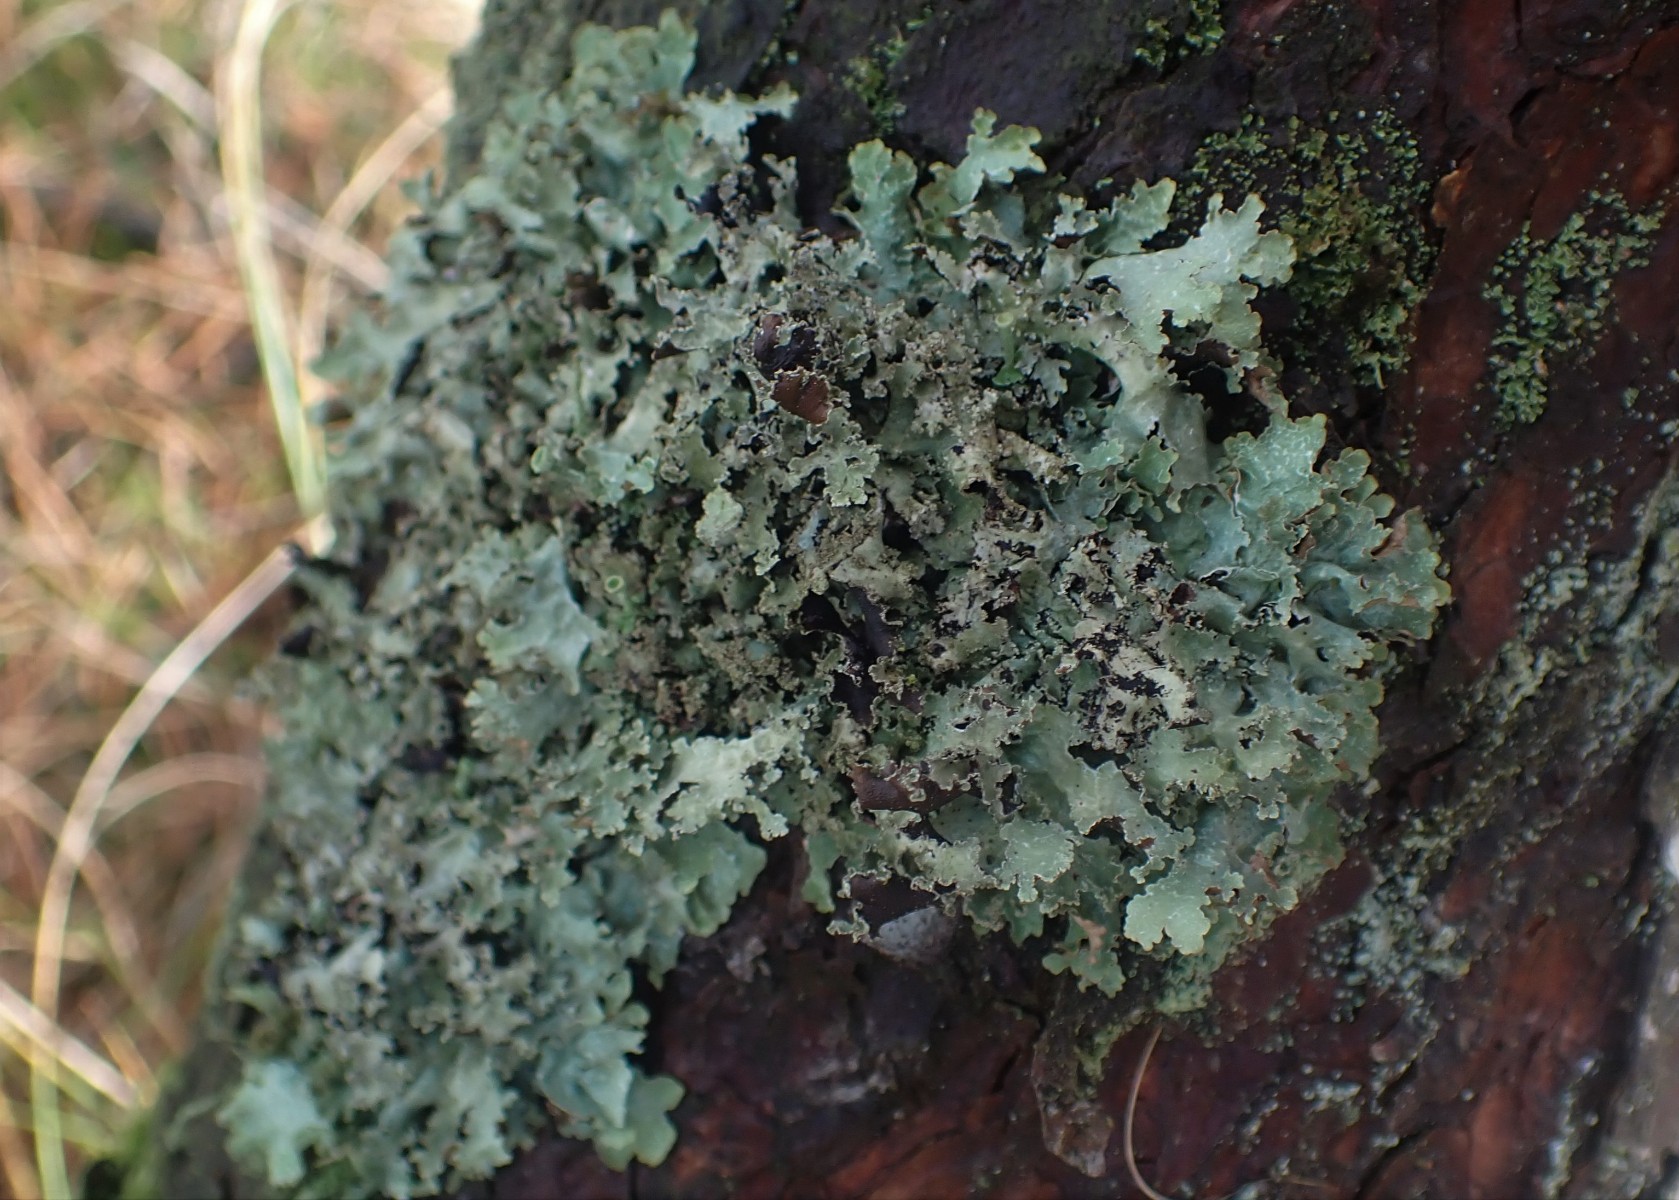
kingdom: Fungi
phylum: Ascomycota
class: Lecanoromycetes
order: Lecanorales
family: Parmeliaceae
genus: Platismatia
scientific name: Platismatia glauca
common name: blågrå papirlav
